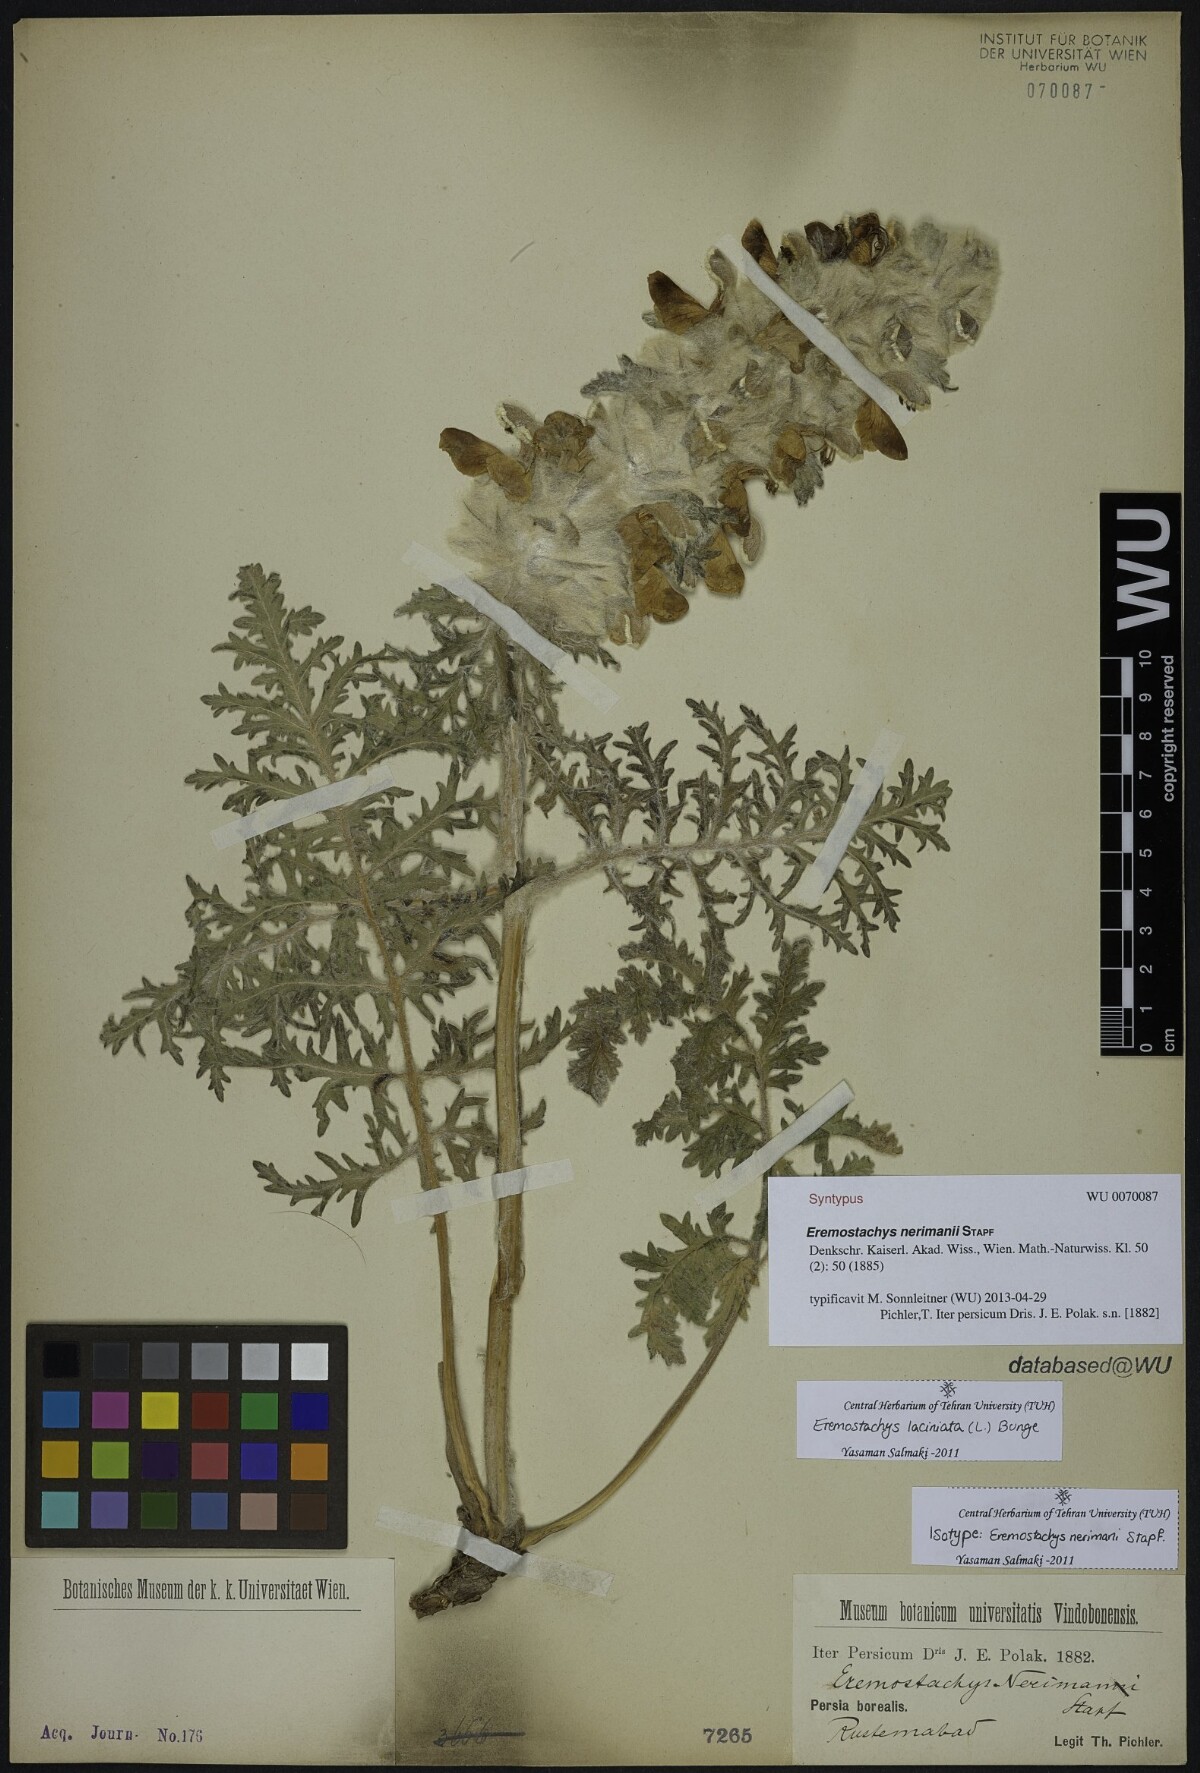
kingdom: Plantae
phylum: Tracheophyta
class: Magnoliopsida
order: Lamiales
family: Lamiaceae
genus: Phlomoides
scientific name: Phlomoides laciniata
